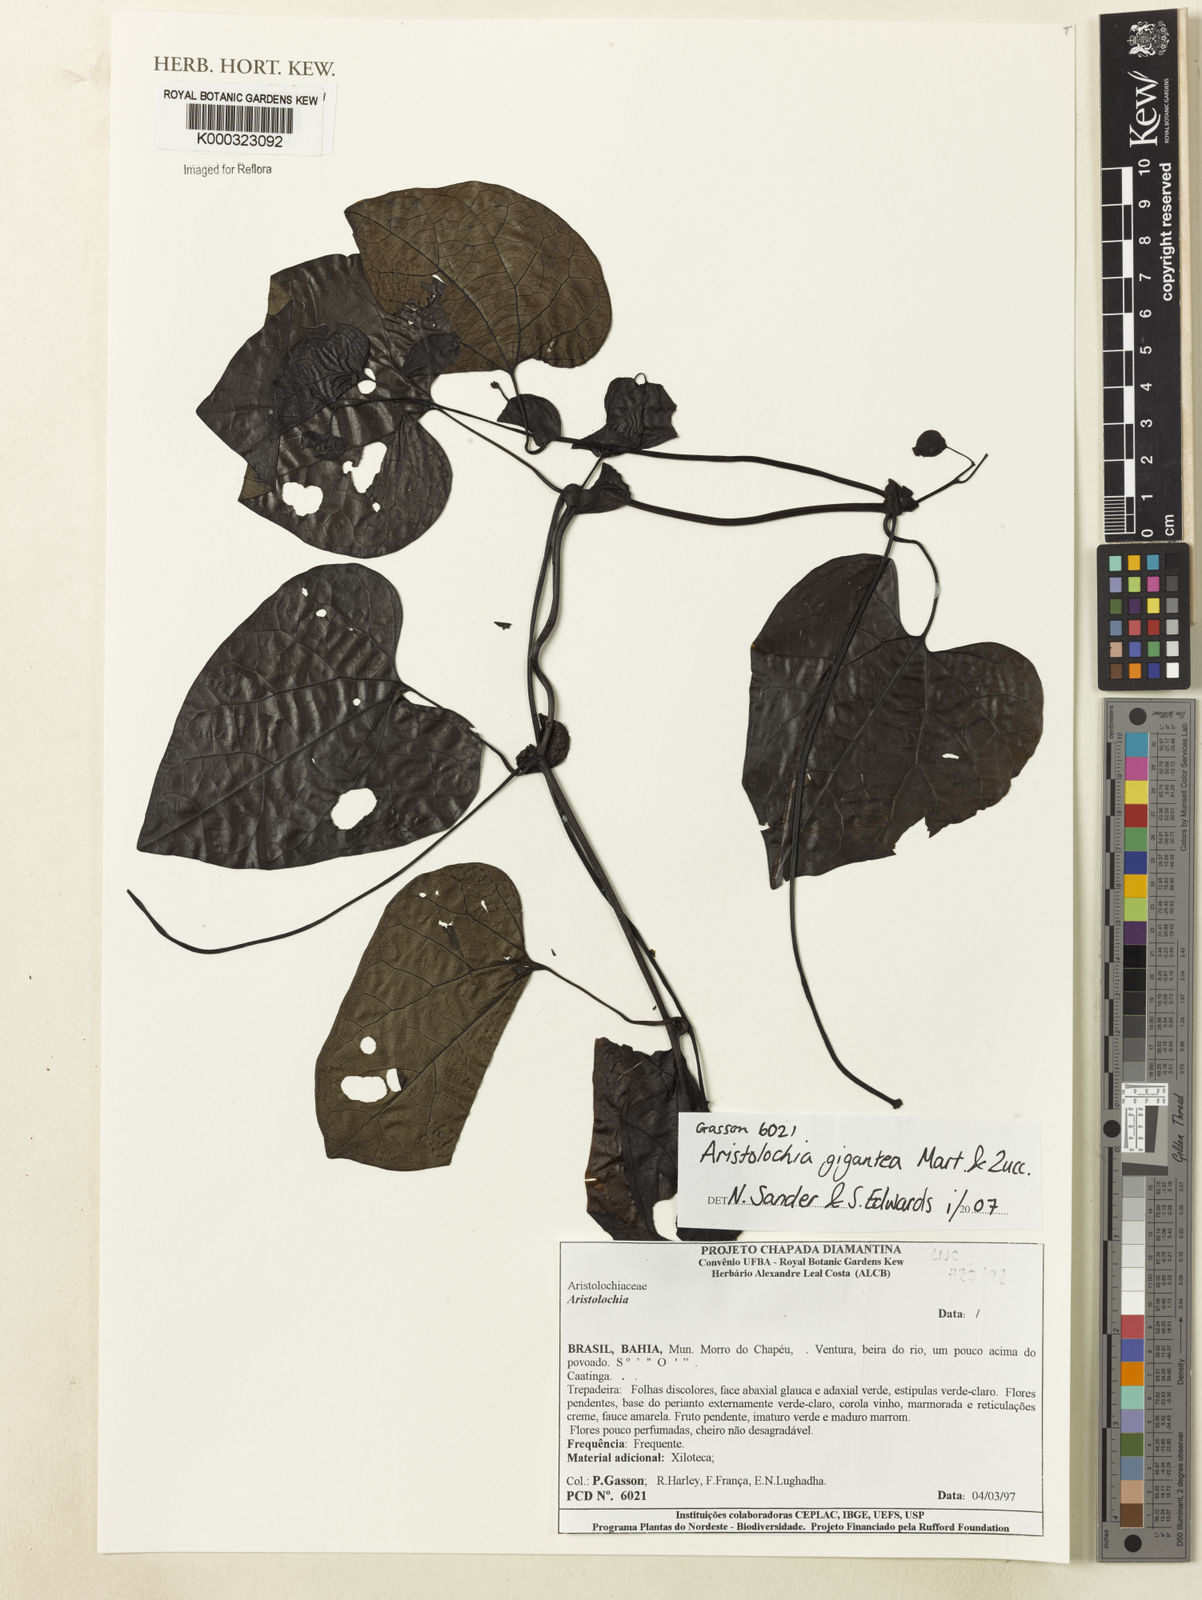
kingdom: Plantae
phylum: Tracheophyta
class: Magnoliopsida
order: Piperales
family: Aristolochiaceae
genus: Aristolochia
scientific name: Aristolochia gigantea
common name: Duckflower
